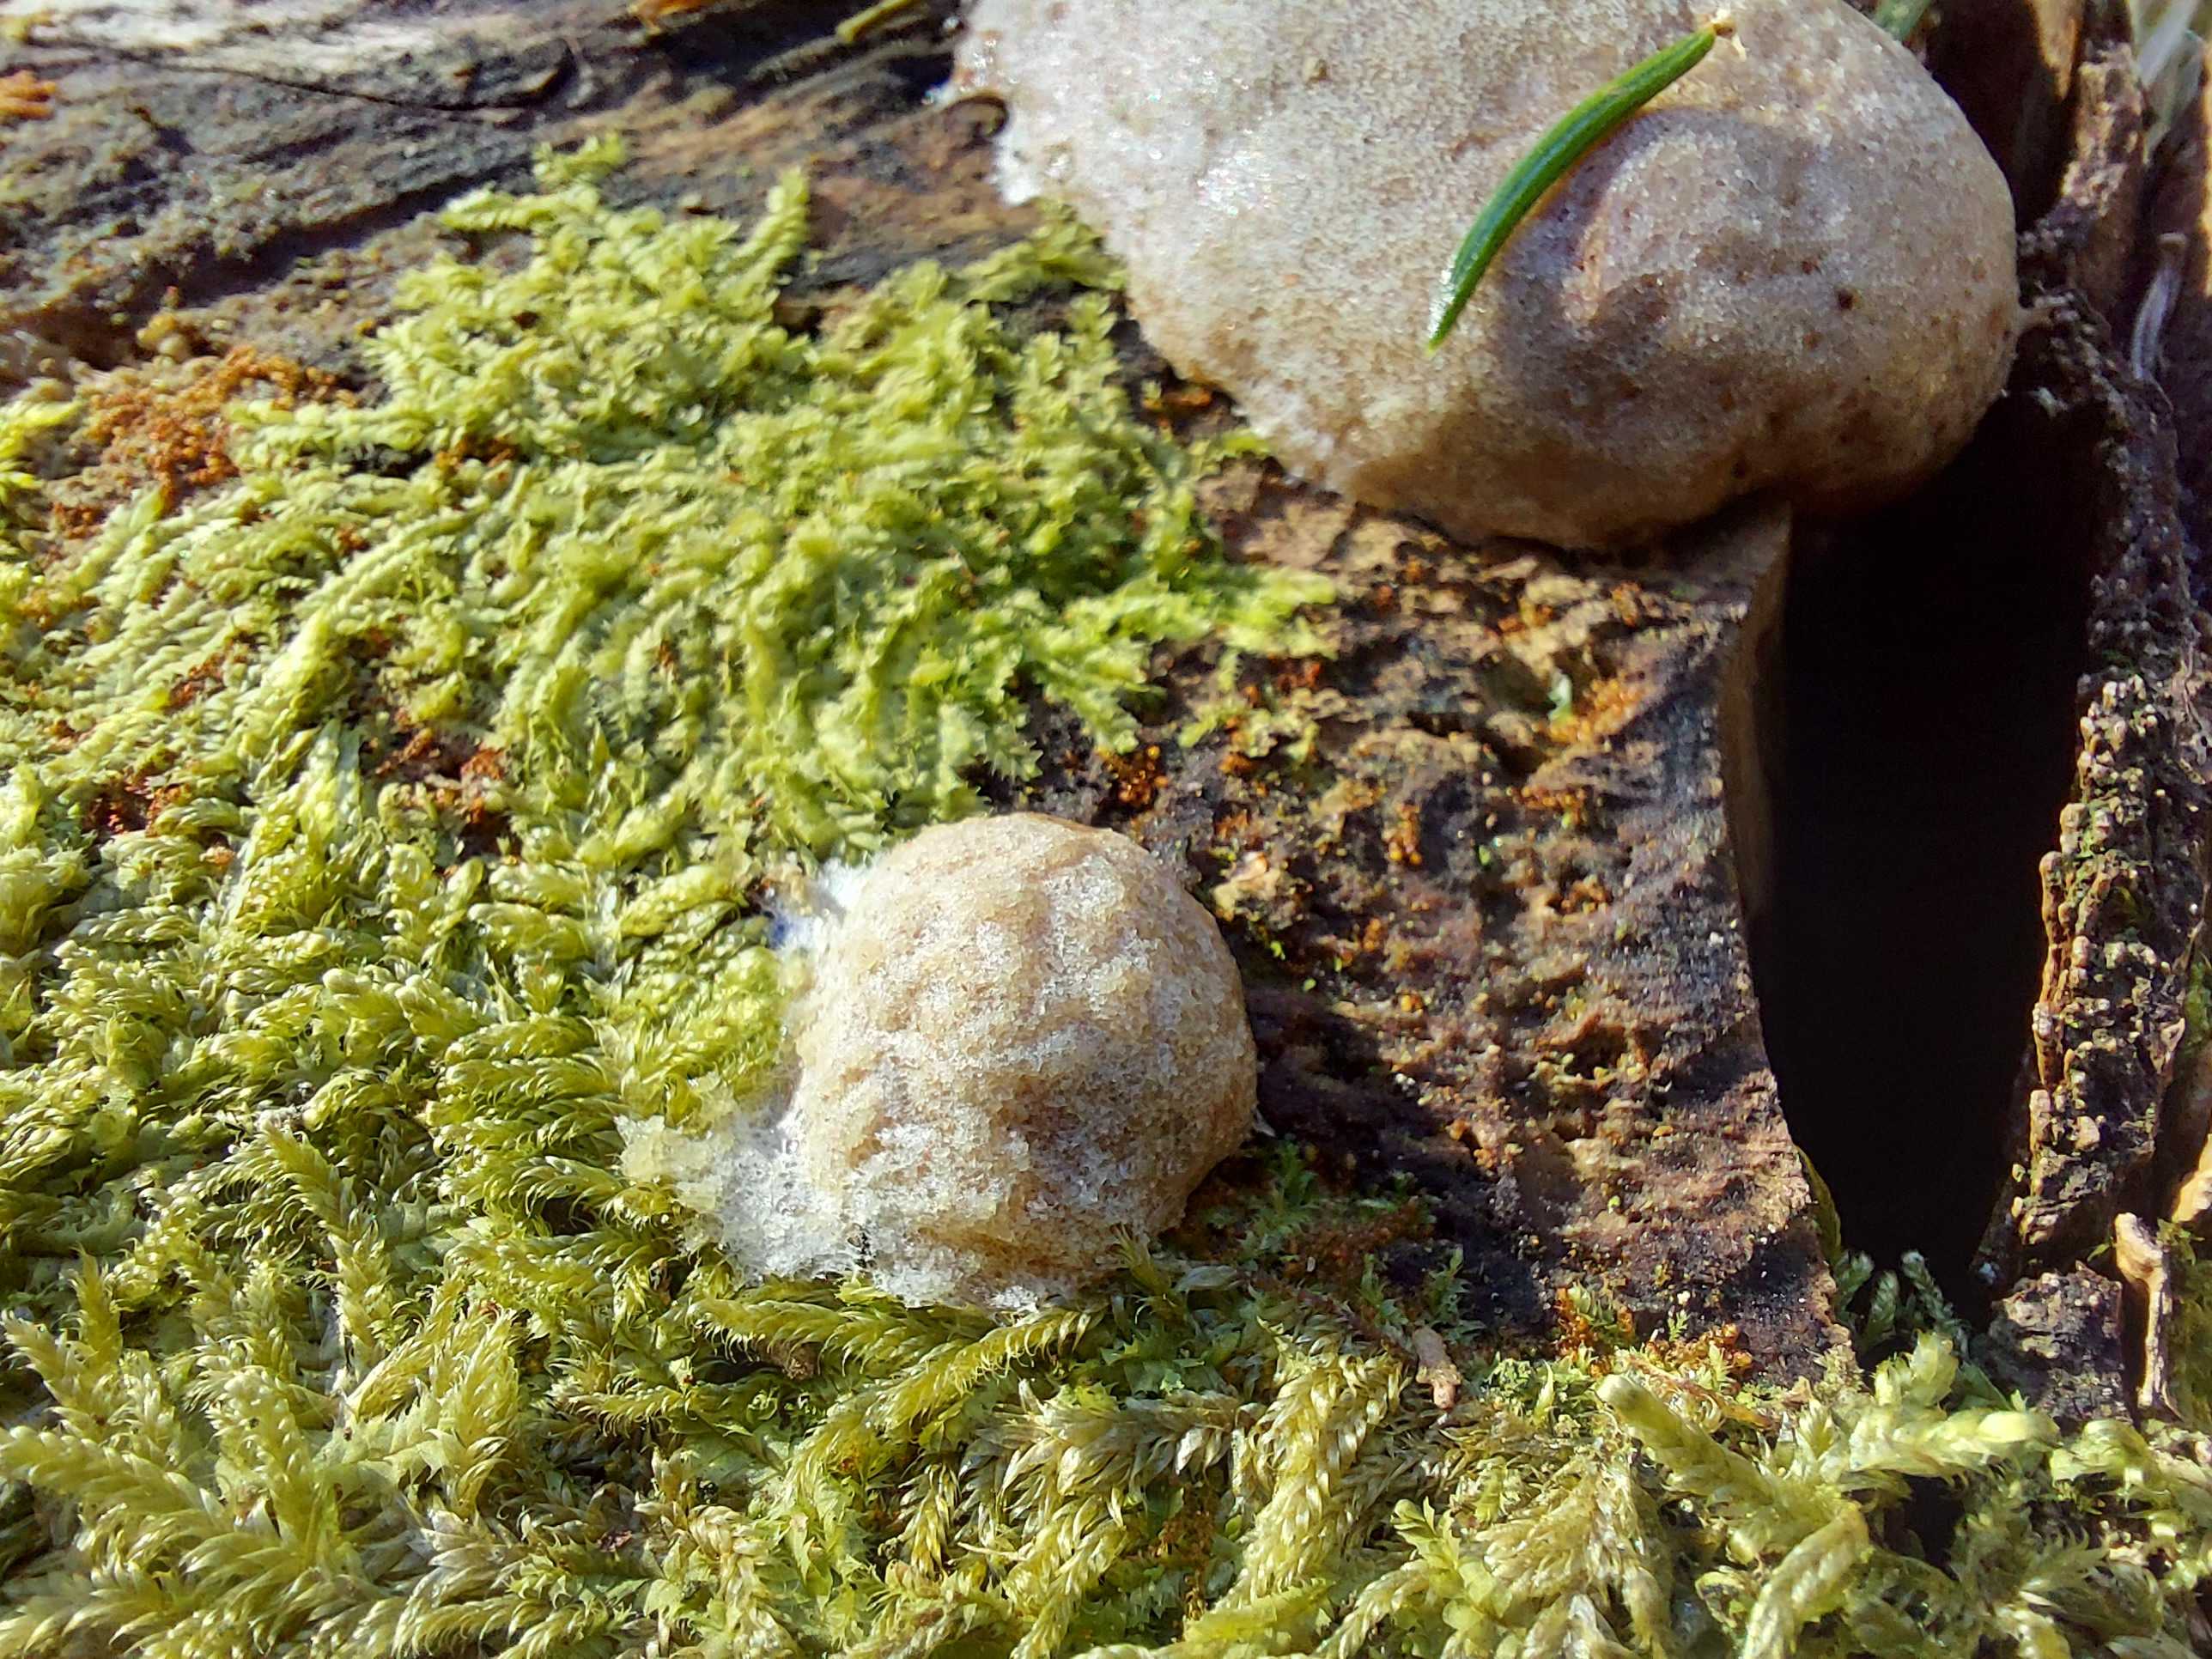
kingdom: Protozoa
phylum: Mycetozoa
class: Myxomycetes
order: Cribrariales
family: Tubiferaceae
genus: Reticularia
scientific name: Reticularia lycoperdon
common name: skinnende støvpude
